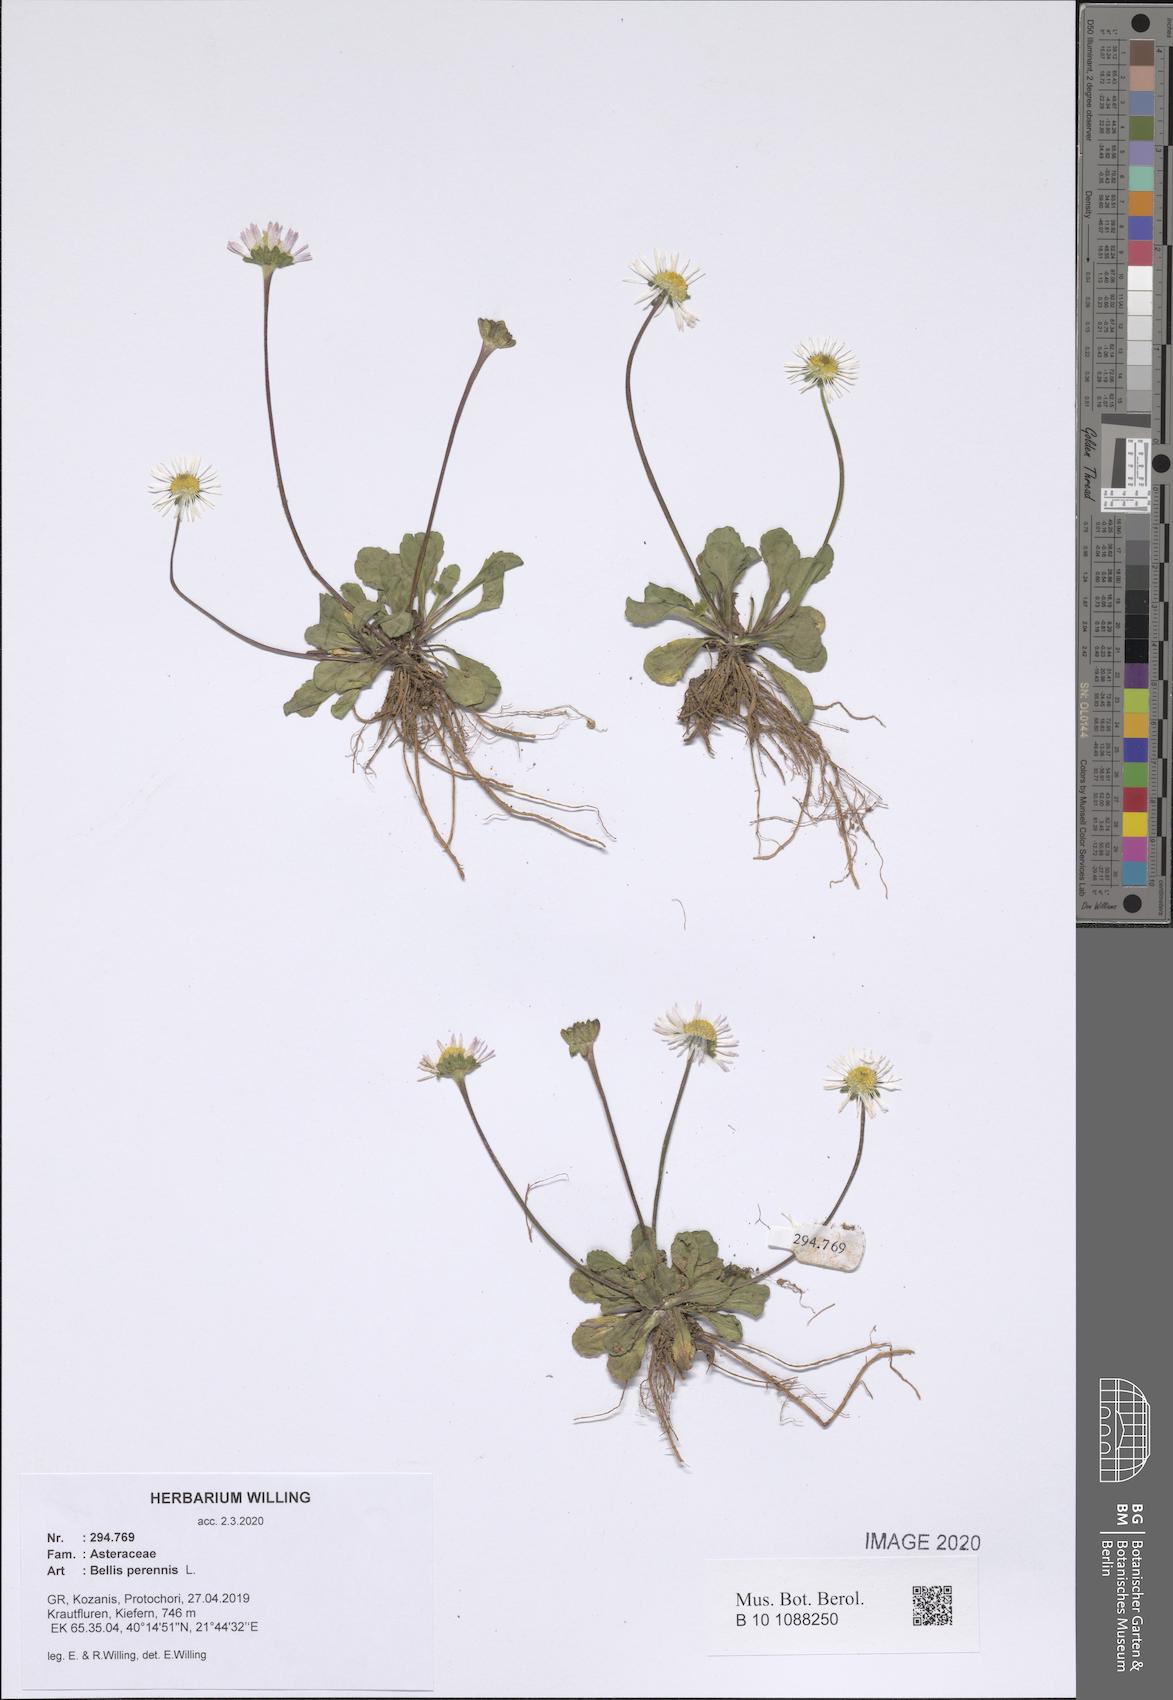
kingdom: Plantae
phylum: Tracheophyta
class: Magnoliopsida
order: Asterales
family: Asteraceae
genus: Bellis
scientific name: Bellis perennis
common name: Lawndaisy
